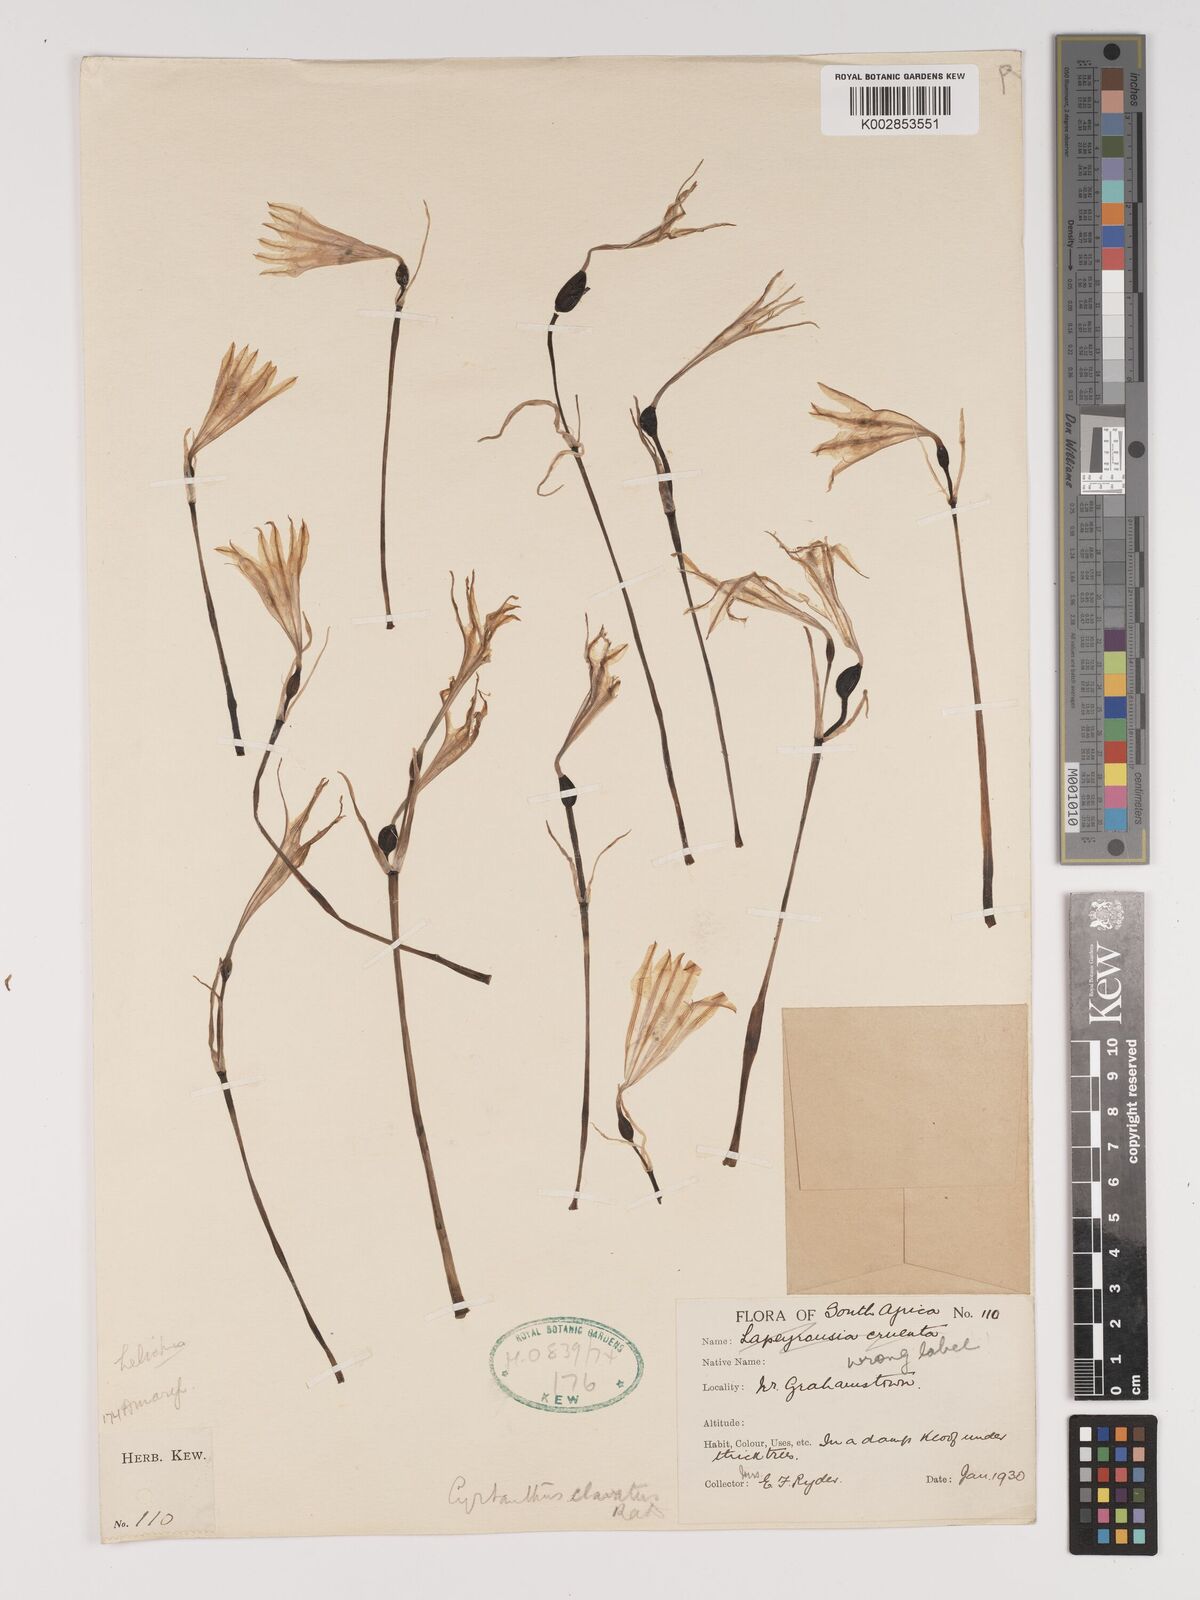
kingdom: Plantae
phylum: Tracheophyta
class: Liliopsida
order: Asparagales
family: Amaryllidaceae
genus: Cyrtanthus
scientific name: Cyrtanthus clavatus
